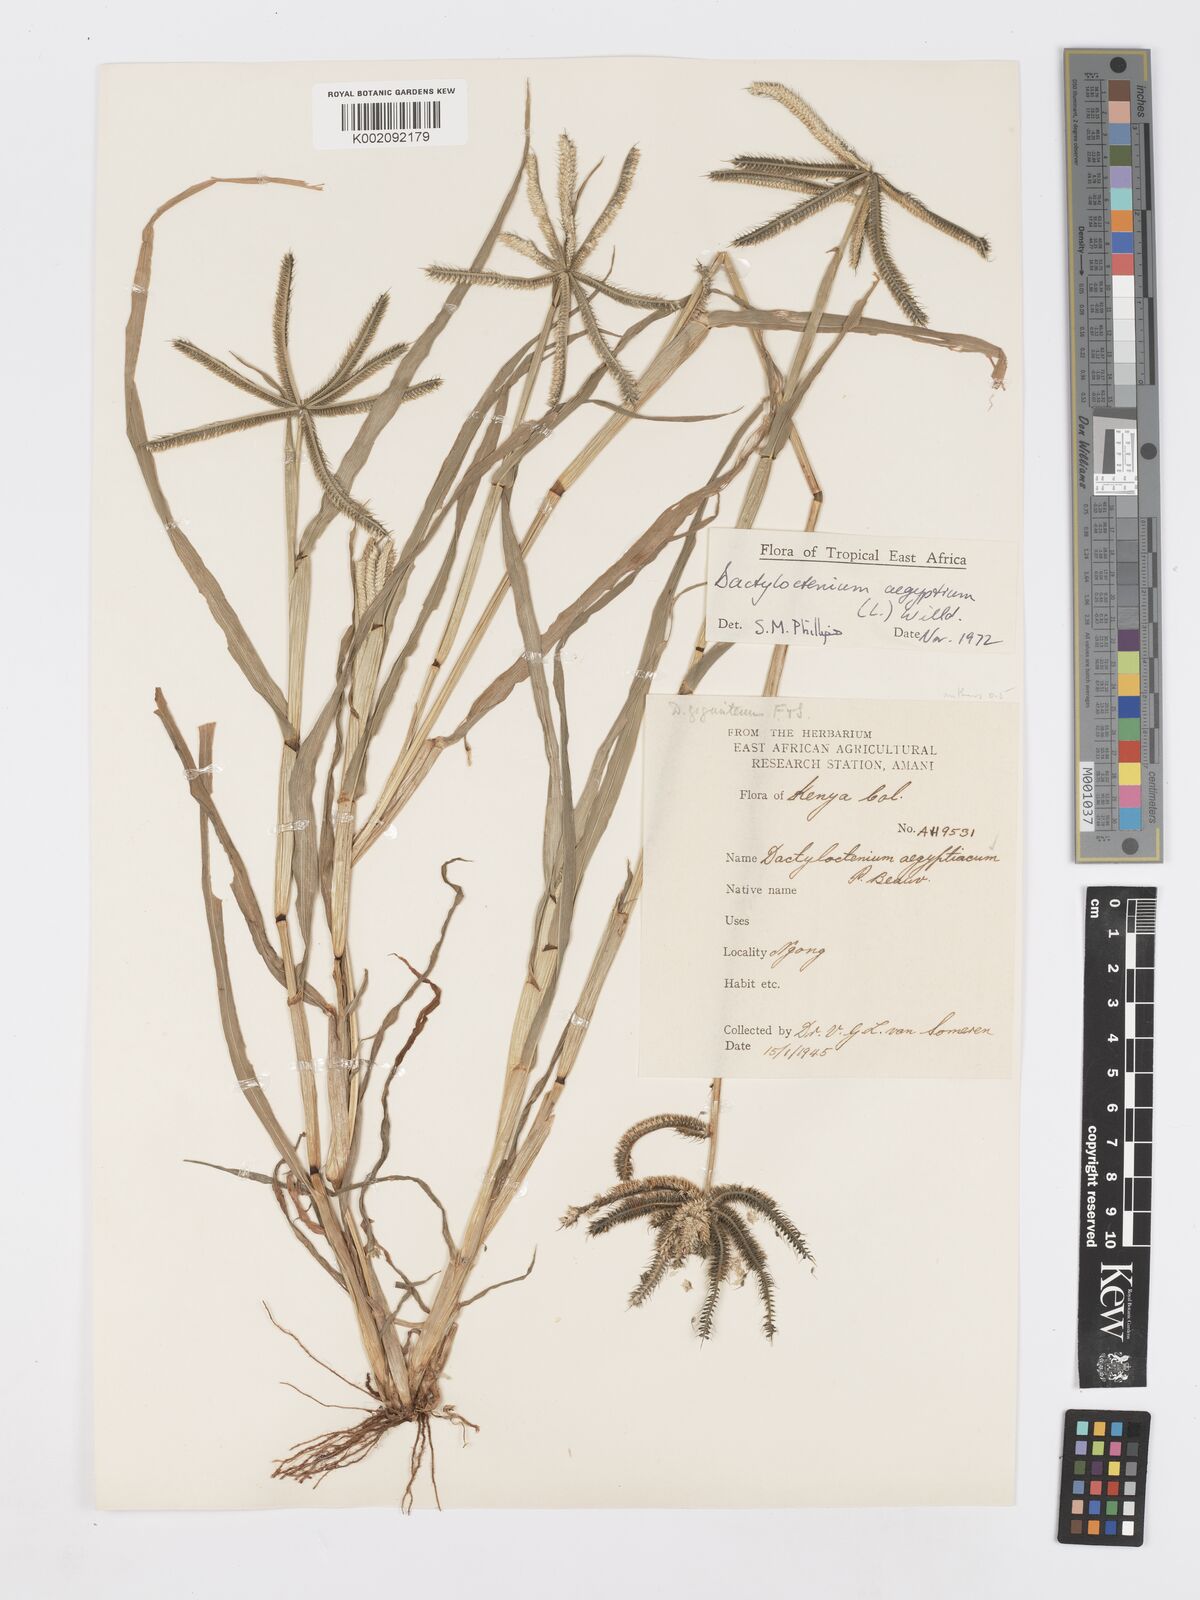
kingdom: Plantae
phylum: Tracheophyta
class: Liliopsida
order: Poales
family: Poaceae
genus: Dactyloctenium
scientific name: Dactyloctenium aegyptium
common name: Egyptian grass
